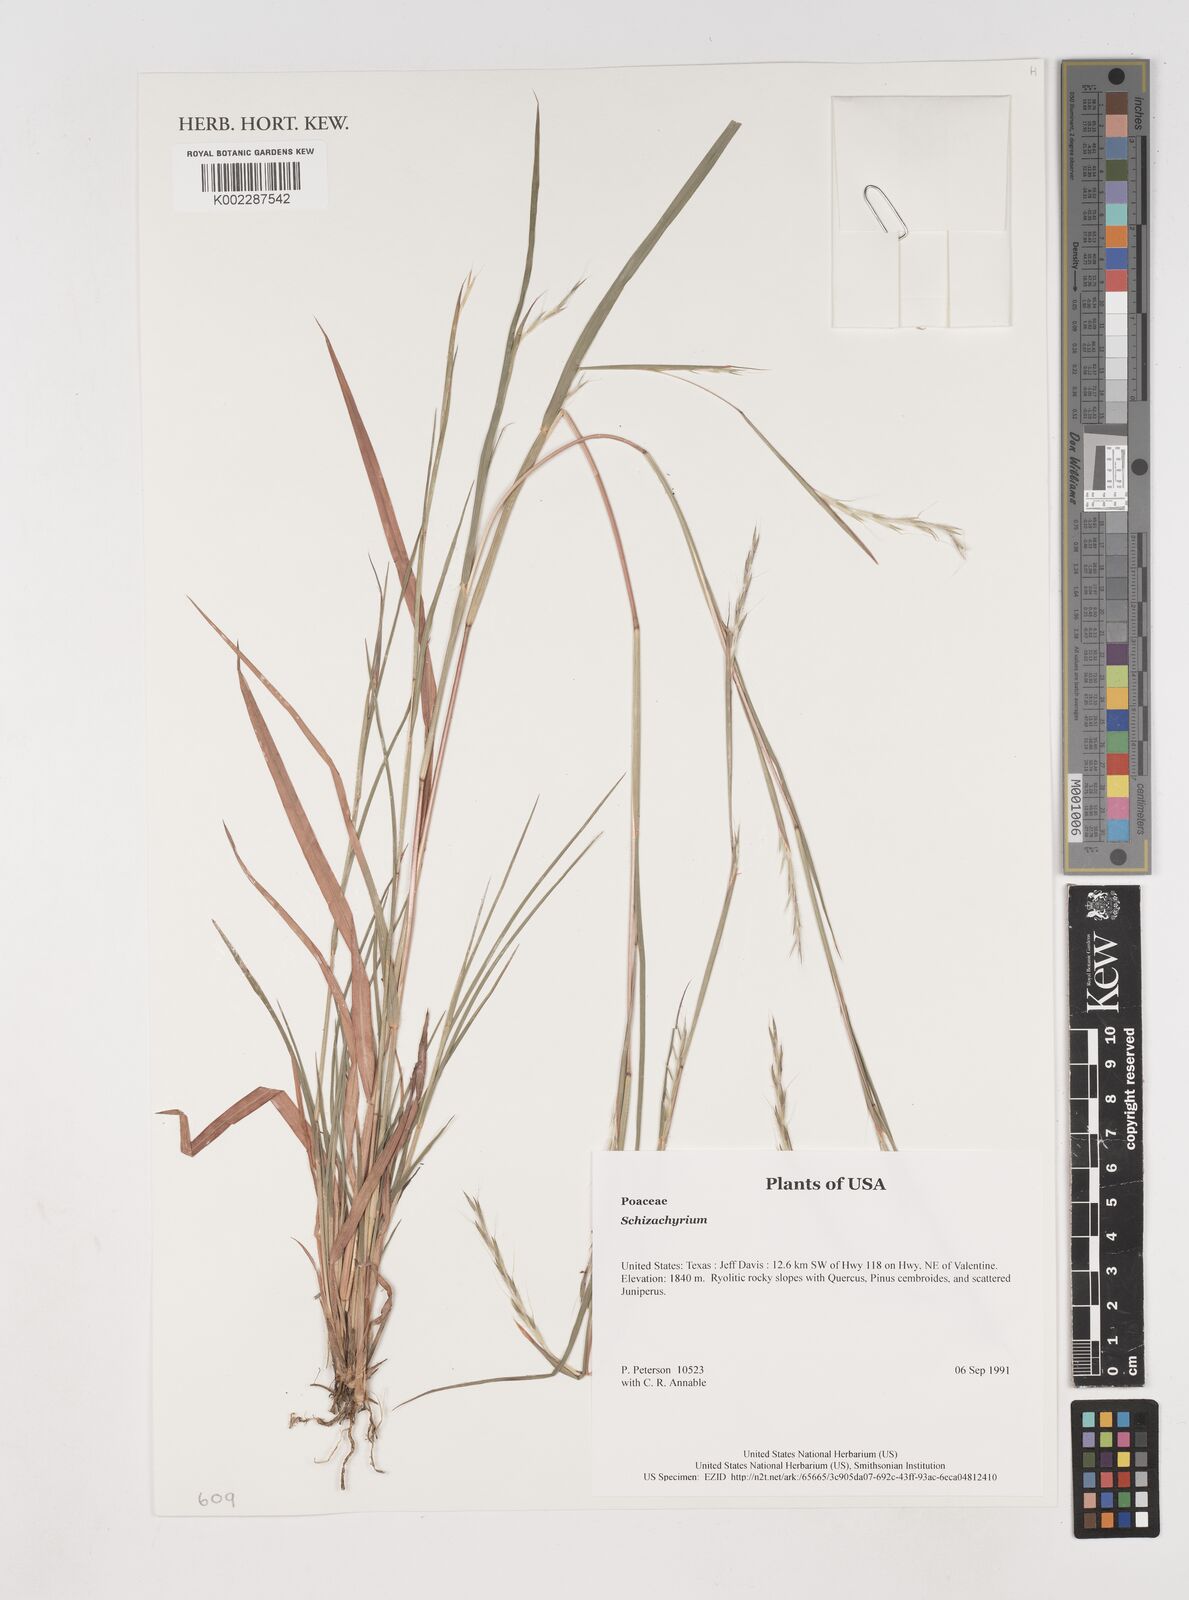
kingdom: Plantae
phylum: Tracheophyta
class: Liliopsida
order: Poales
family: Poaceae
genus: Schizachyrium
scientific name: Schizachyrium
